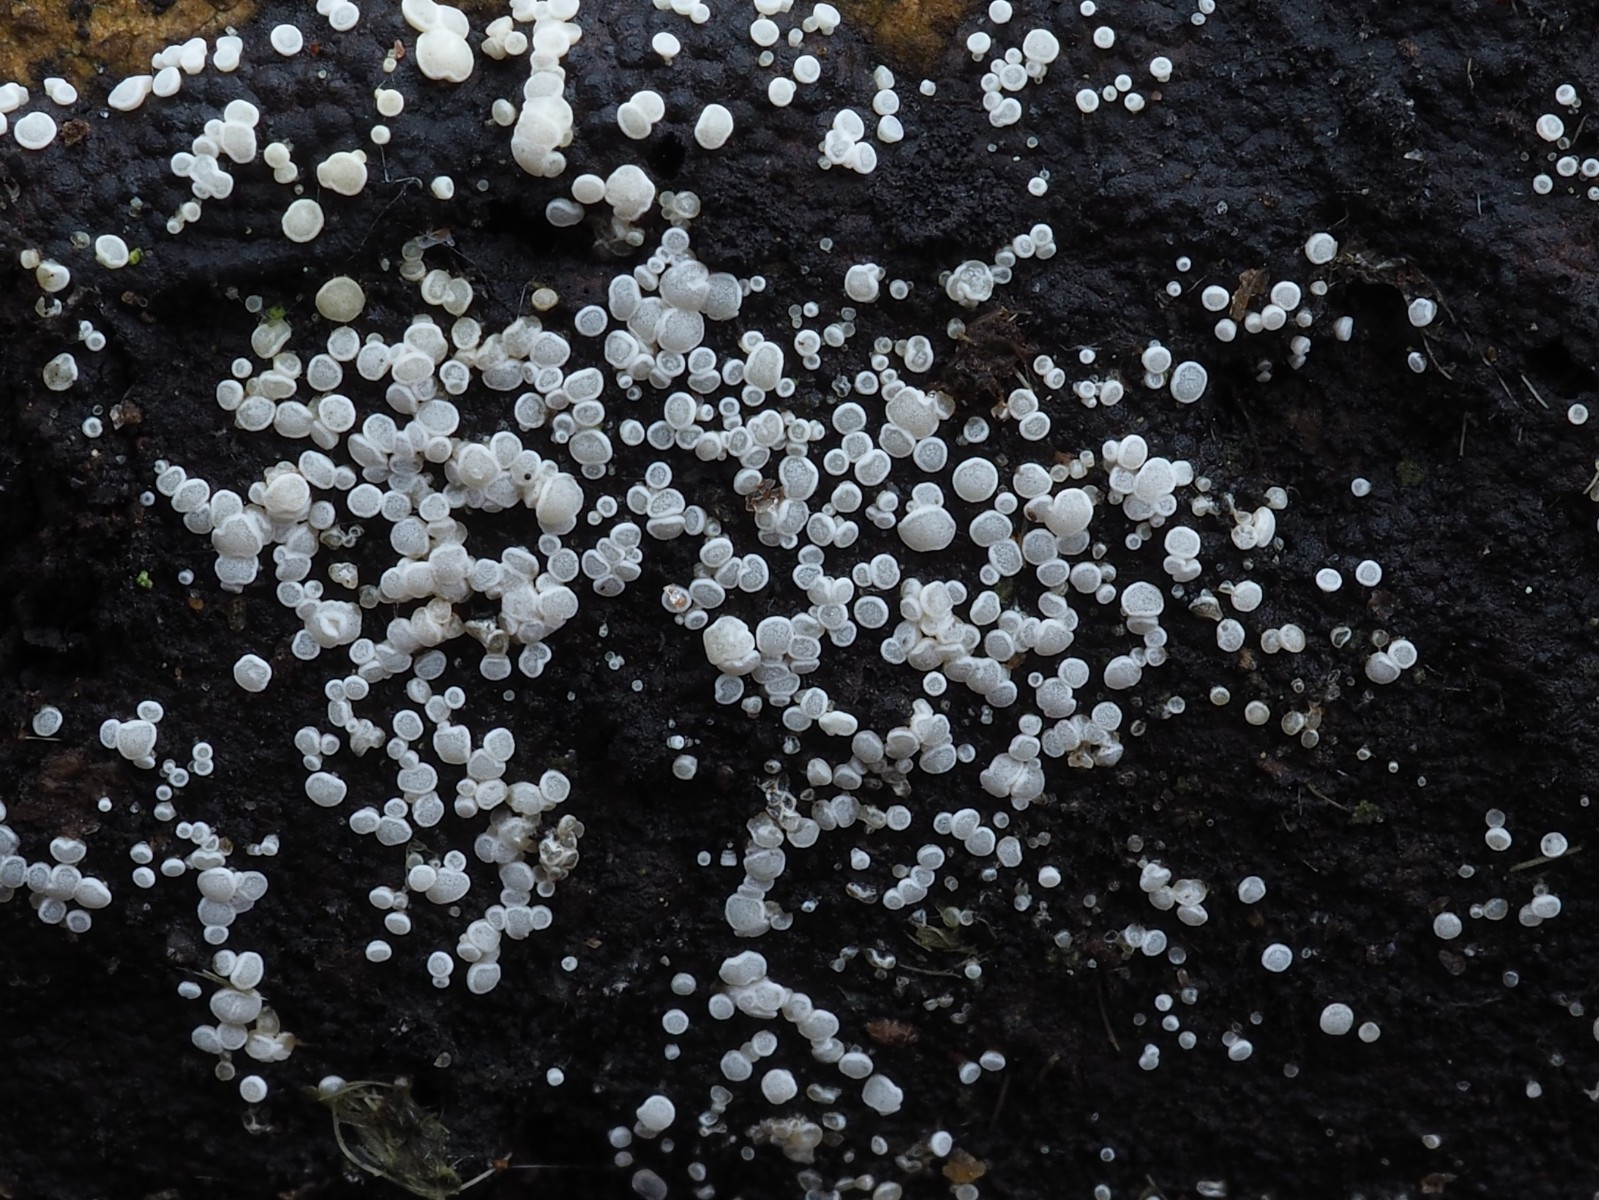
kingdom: Fungi
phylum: Ascomycota
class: Leotiomycetes
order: Helotiales
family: Hyaloscyphaceae
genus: Polydesmia
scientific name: Polydesmia pruinosa
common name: dunskive
